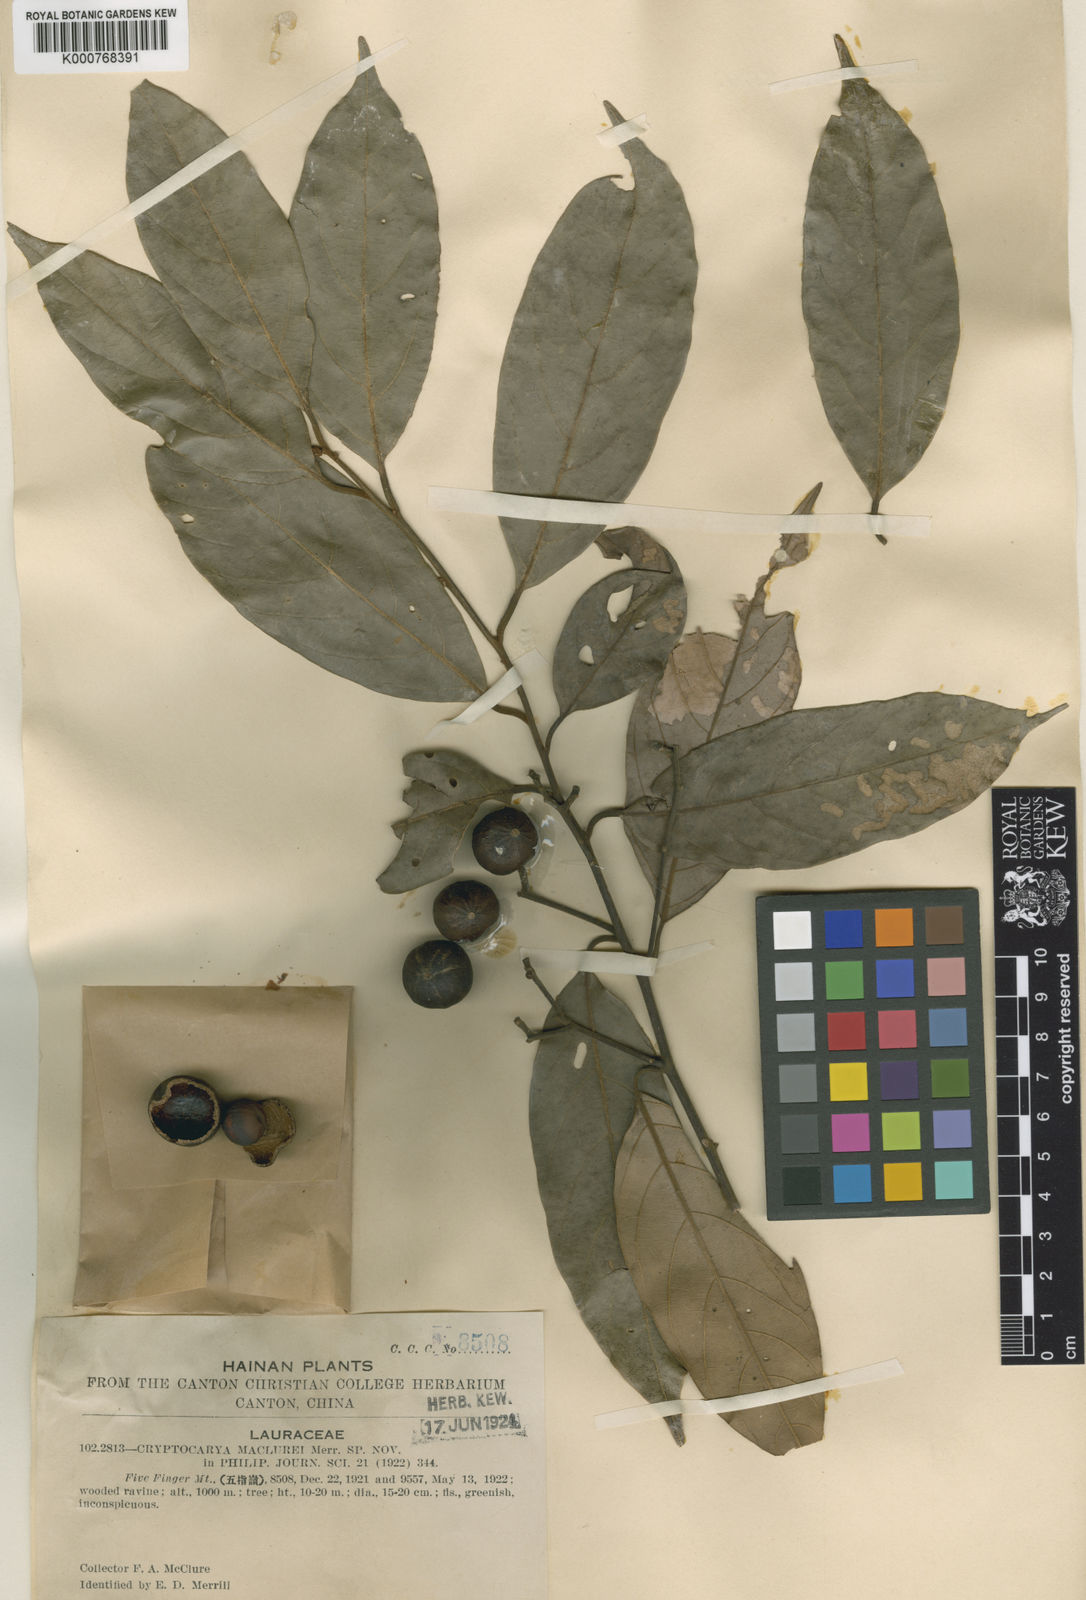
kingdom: Plantae
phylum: Tracheophyta
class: Magnoliopsida
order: Laurales
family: Lauraceae
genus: Cryptocarya
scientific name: Cryptocarya maclurei
